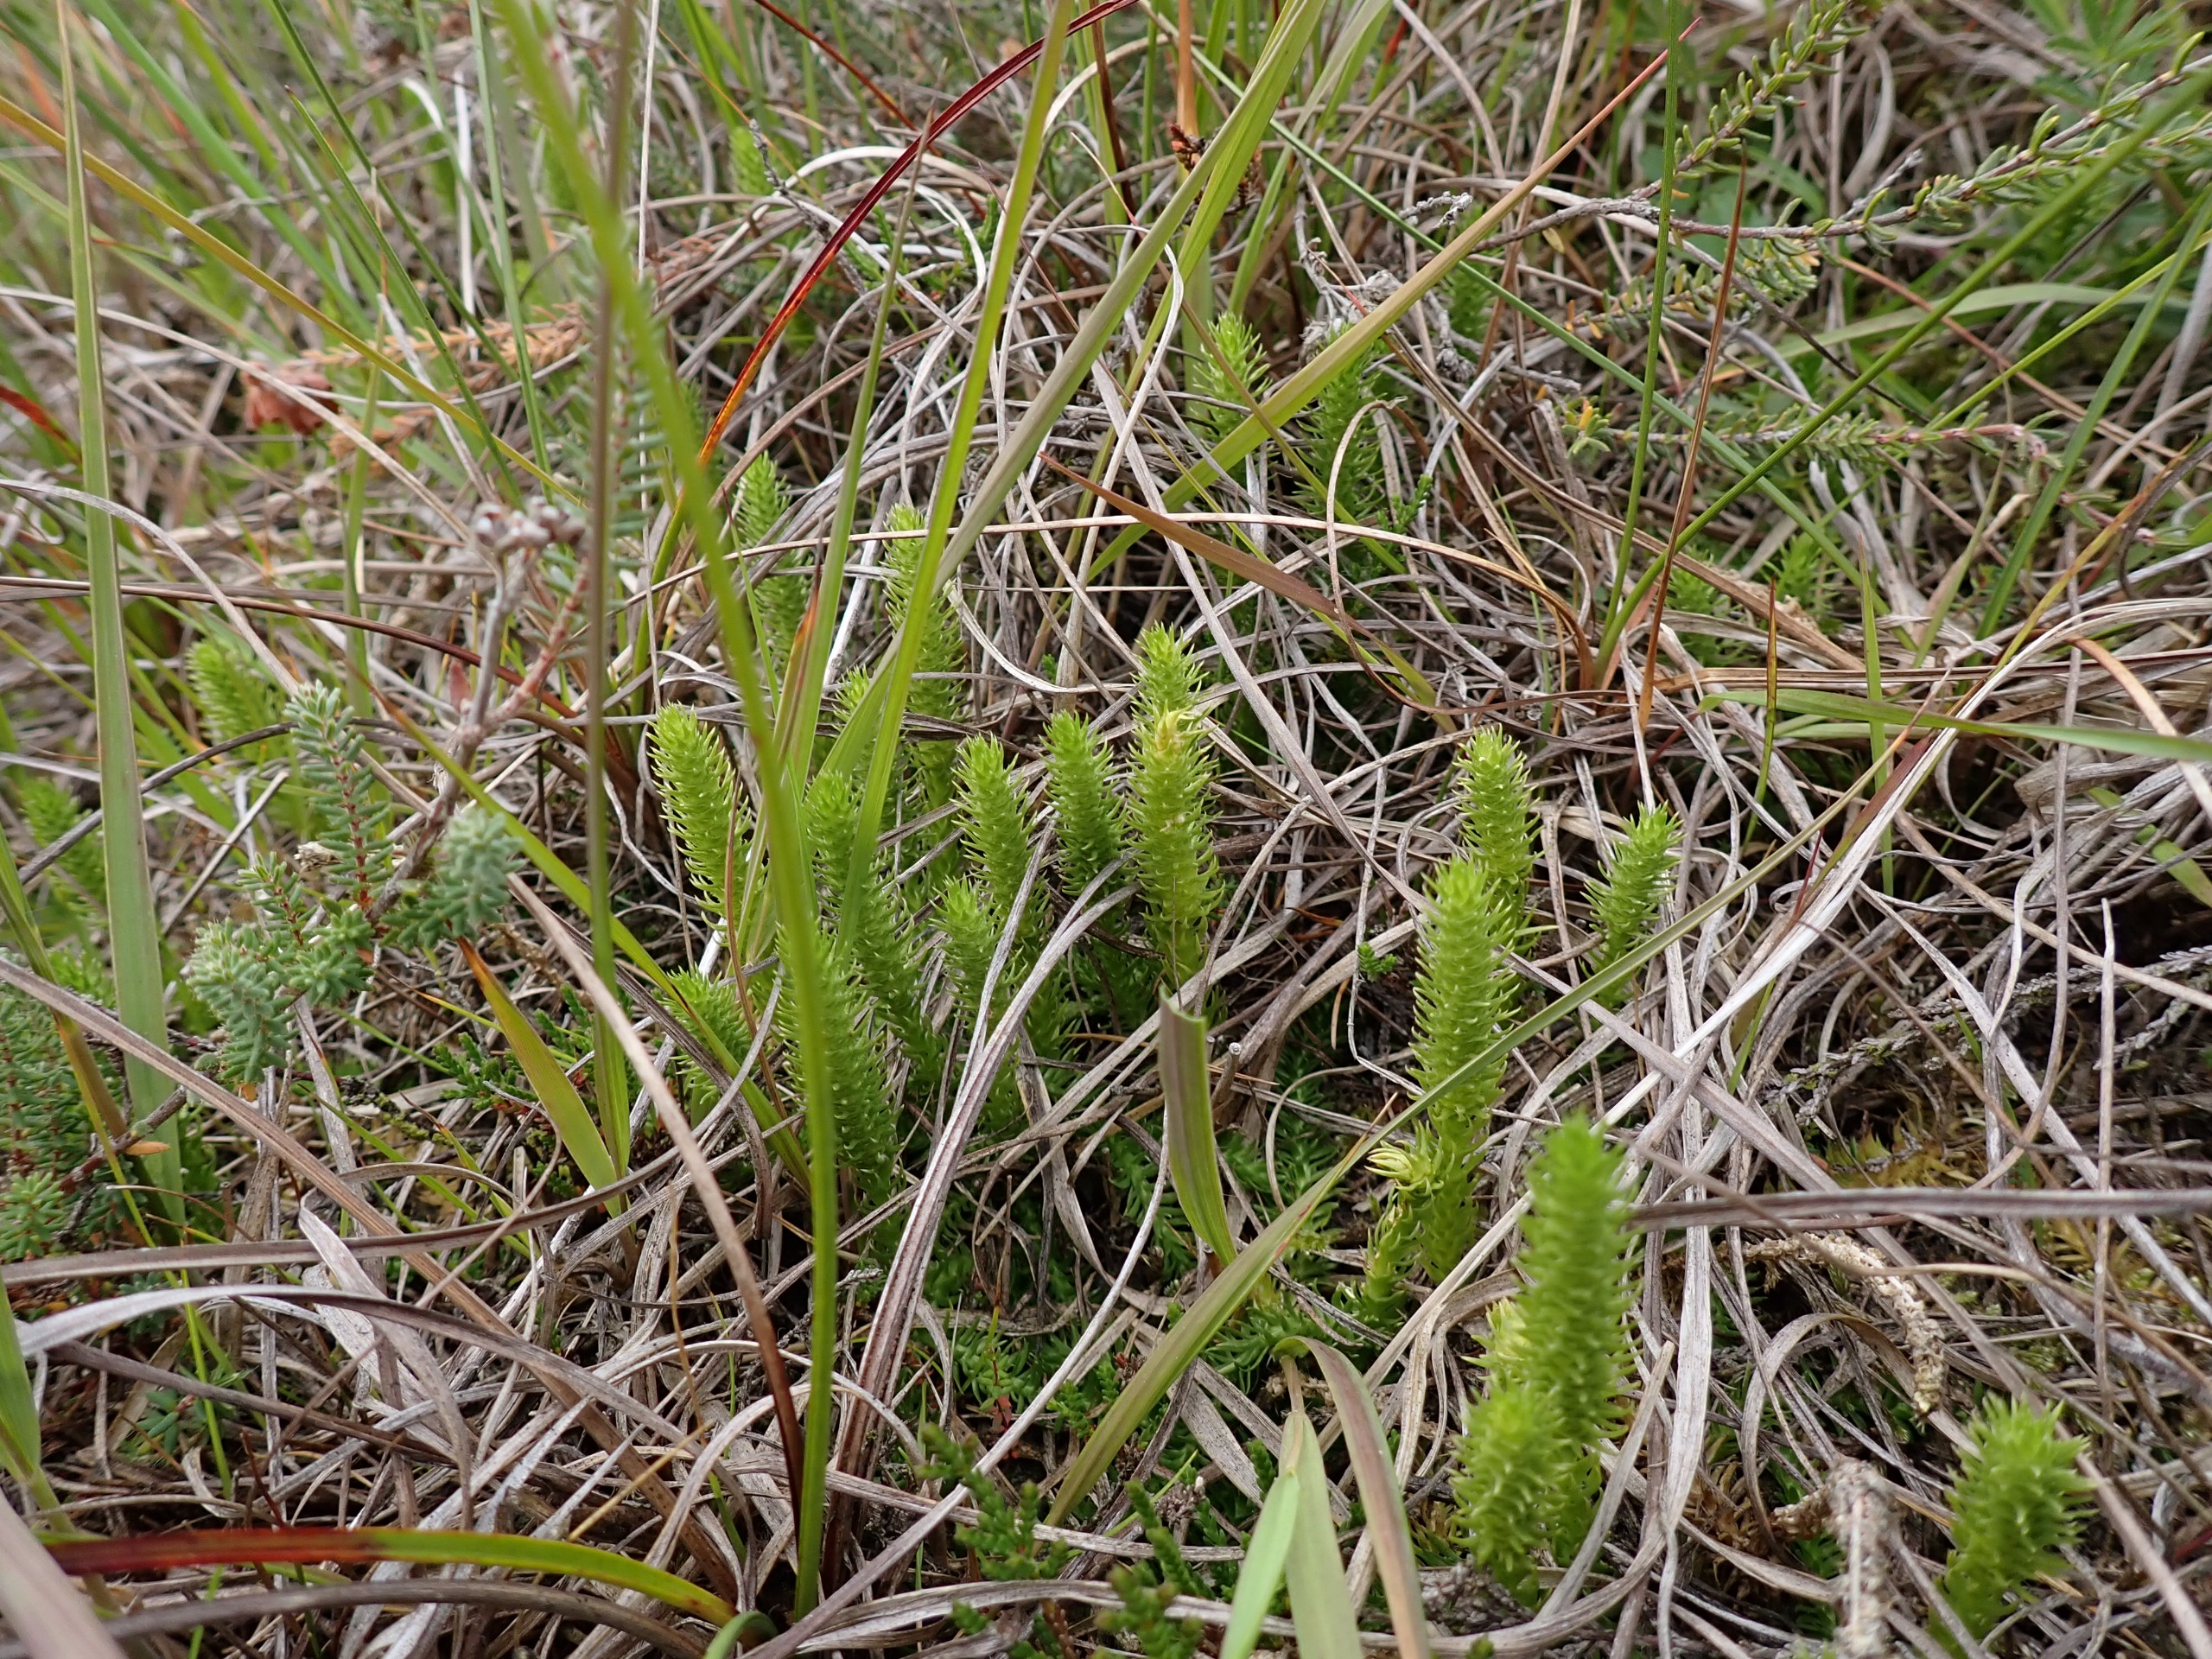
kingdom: Plantae
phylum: Tracheophyta
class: Lycopodiopsida
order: Lycopodiales
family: Lycopodiaceae
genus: Lycopodiella
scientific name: Lycopodiella inundata
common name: Liden ulvefod
